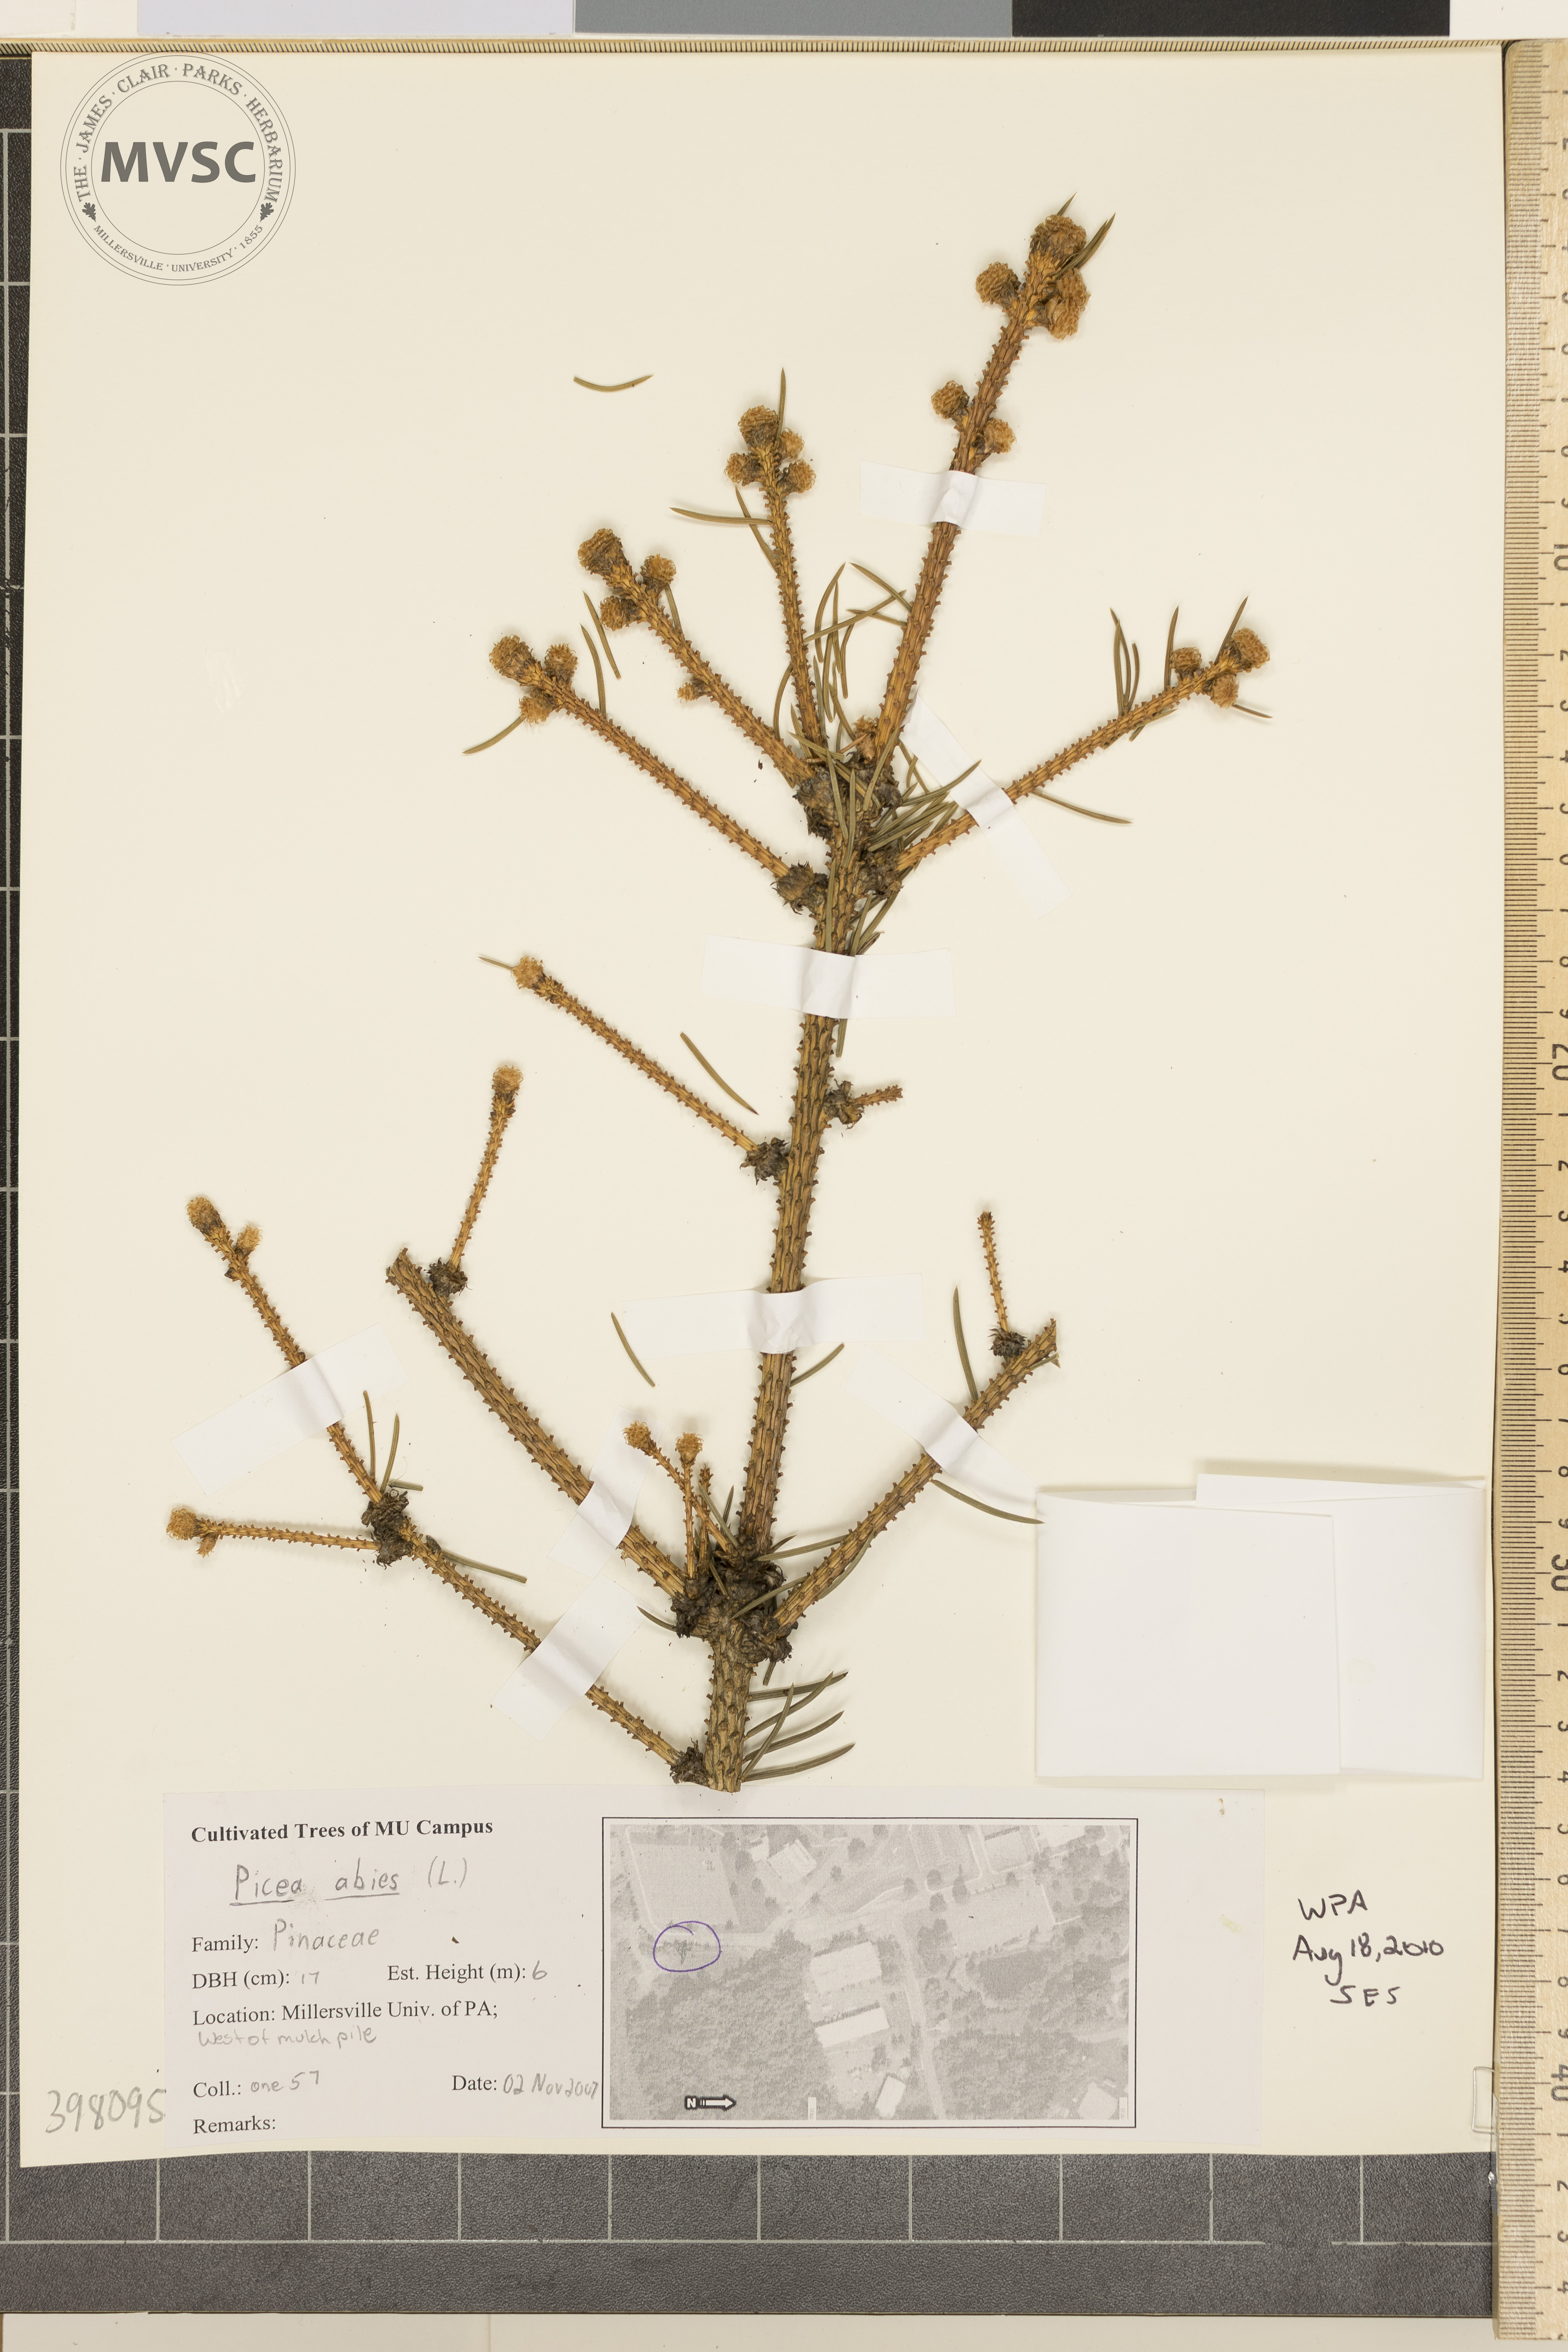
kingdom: Plantae
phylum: Tracheophyta
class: Pinopsida
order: Pinales
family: Pinaceae
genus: Picea
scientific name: Picea abies
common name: Norway spruce
